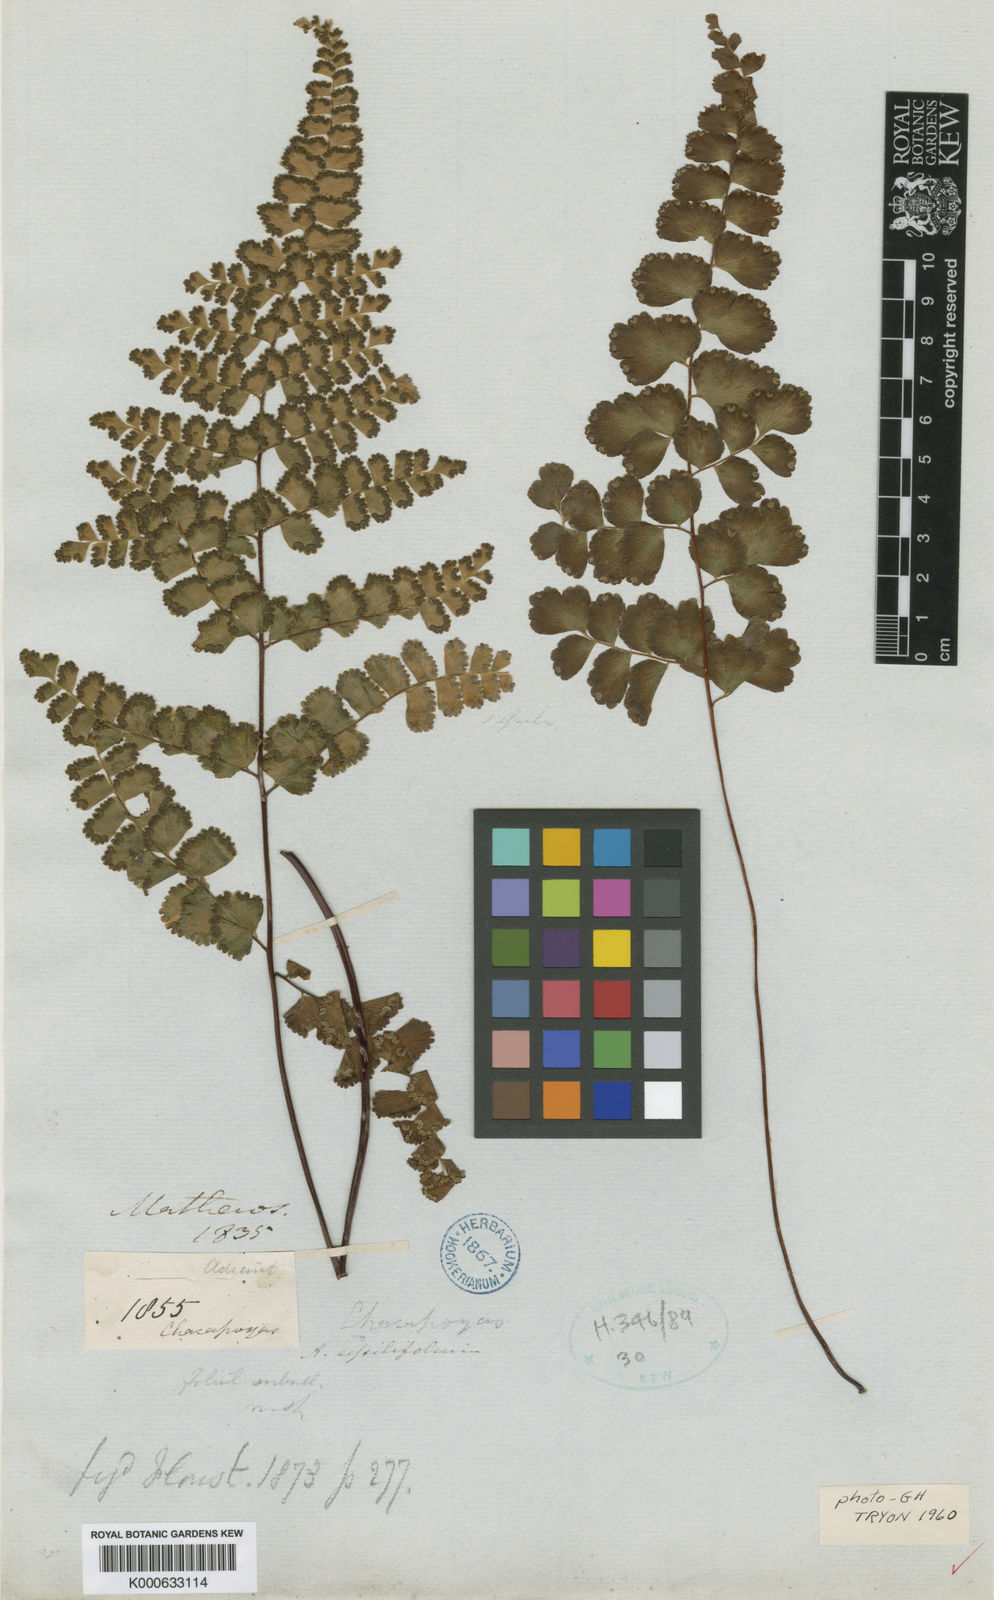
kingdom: Plantae
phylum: Tracheophyta
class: Polypodiopsida
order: Polypodiales
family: Pteridaceae
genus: Adiantum
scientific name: Adiantum henslovianum
